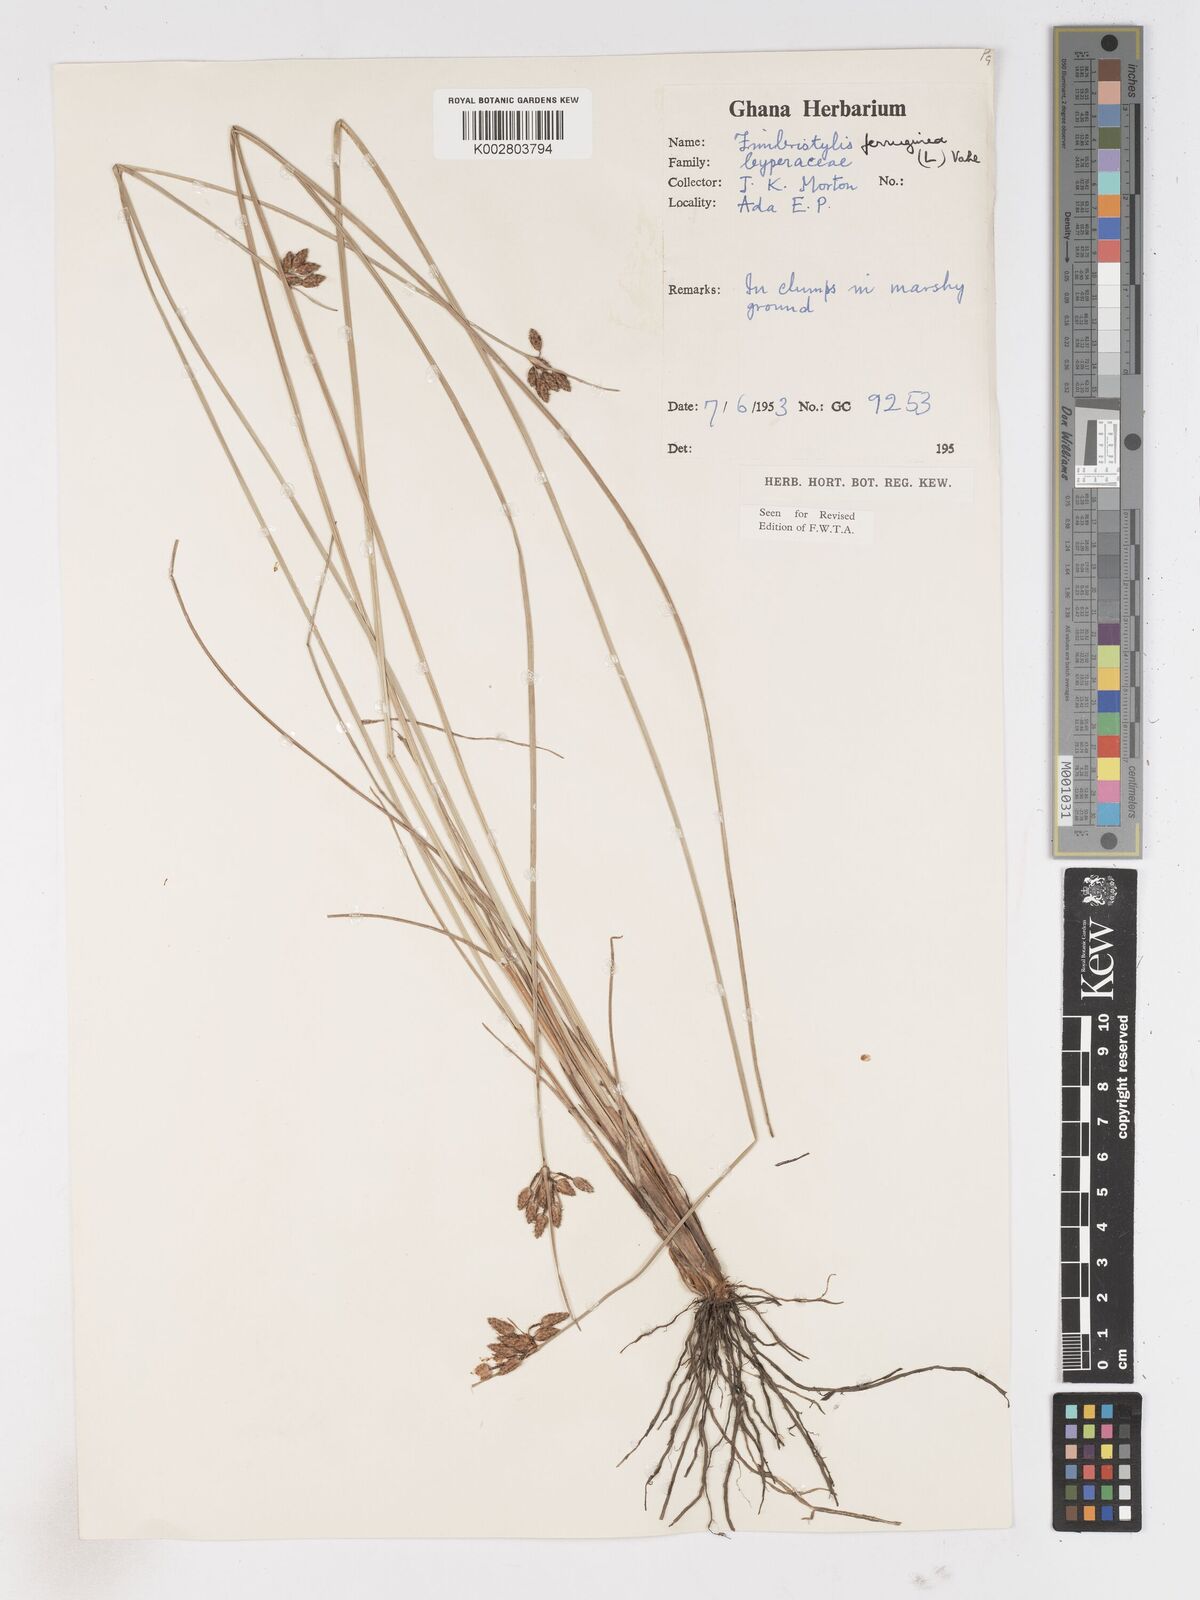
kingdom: Plantae
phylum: Tracheophyta
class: Liliopsida
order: Poales
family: Cyperaceae
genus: Fimbristylis
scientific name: Fimbristylis ferruginea
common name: West indian fimbry
